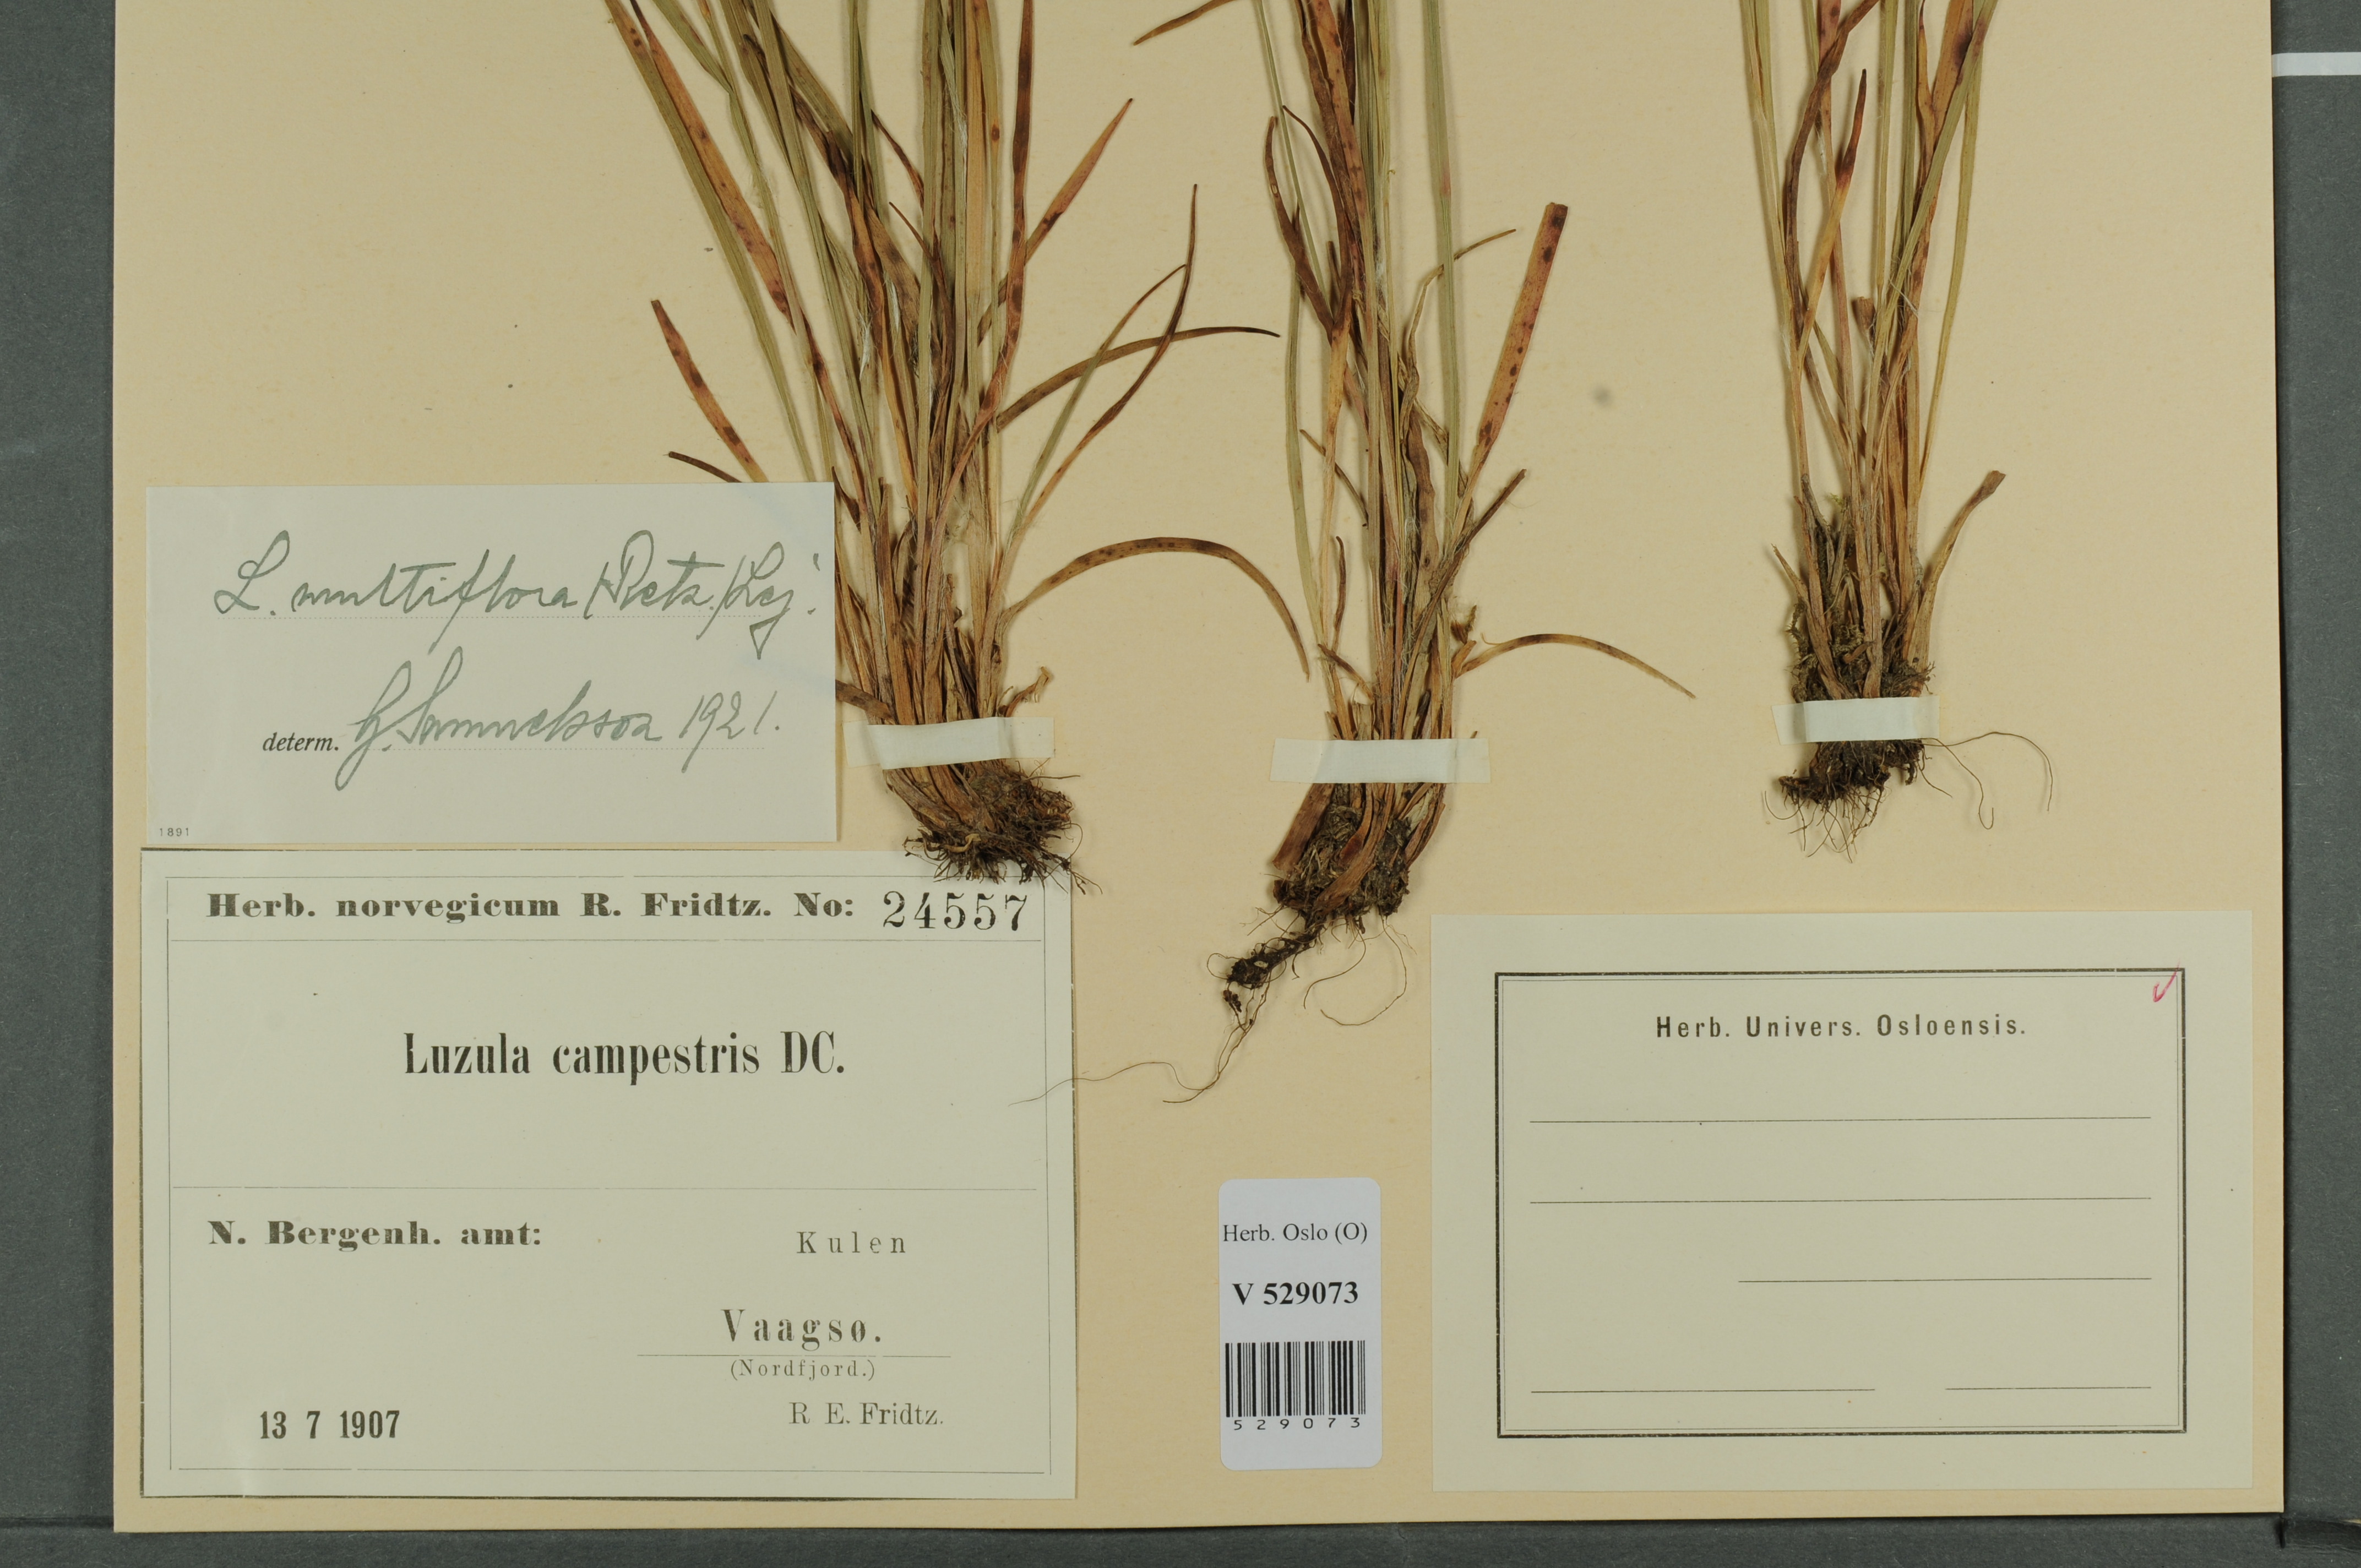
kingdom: Plantae
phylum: Tracheophyta
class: Liliopsida
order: Poales
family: Juncaceae
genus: Luzula
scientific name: Luzula multiflora
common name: Heath wood-rush
